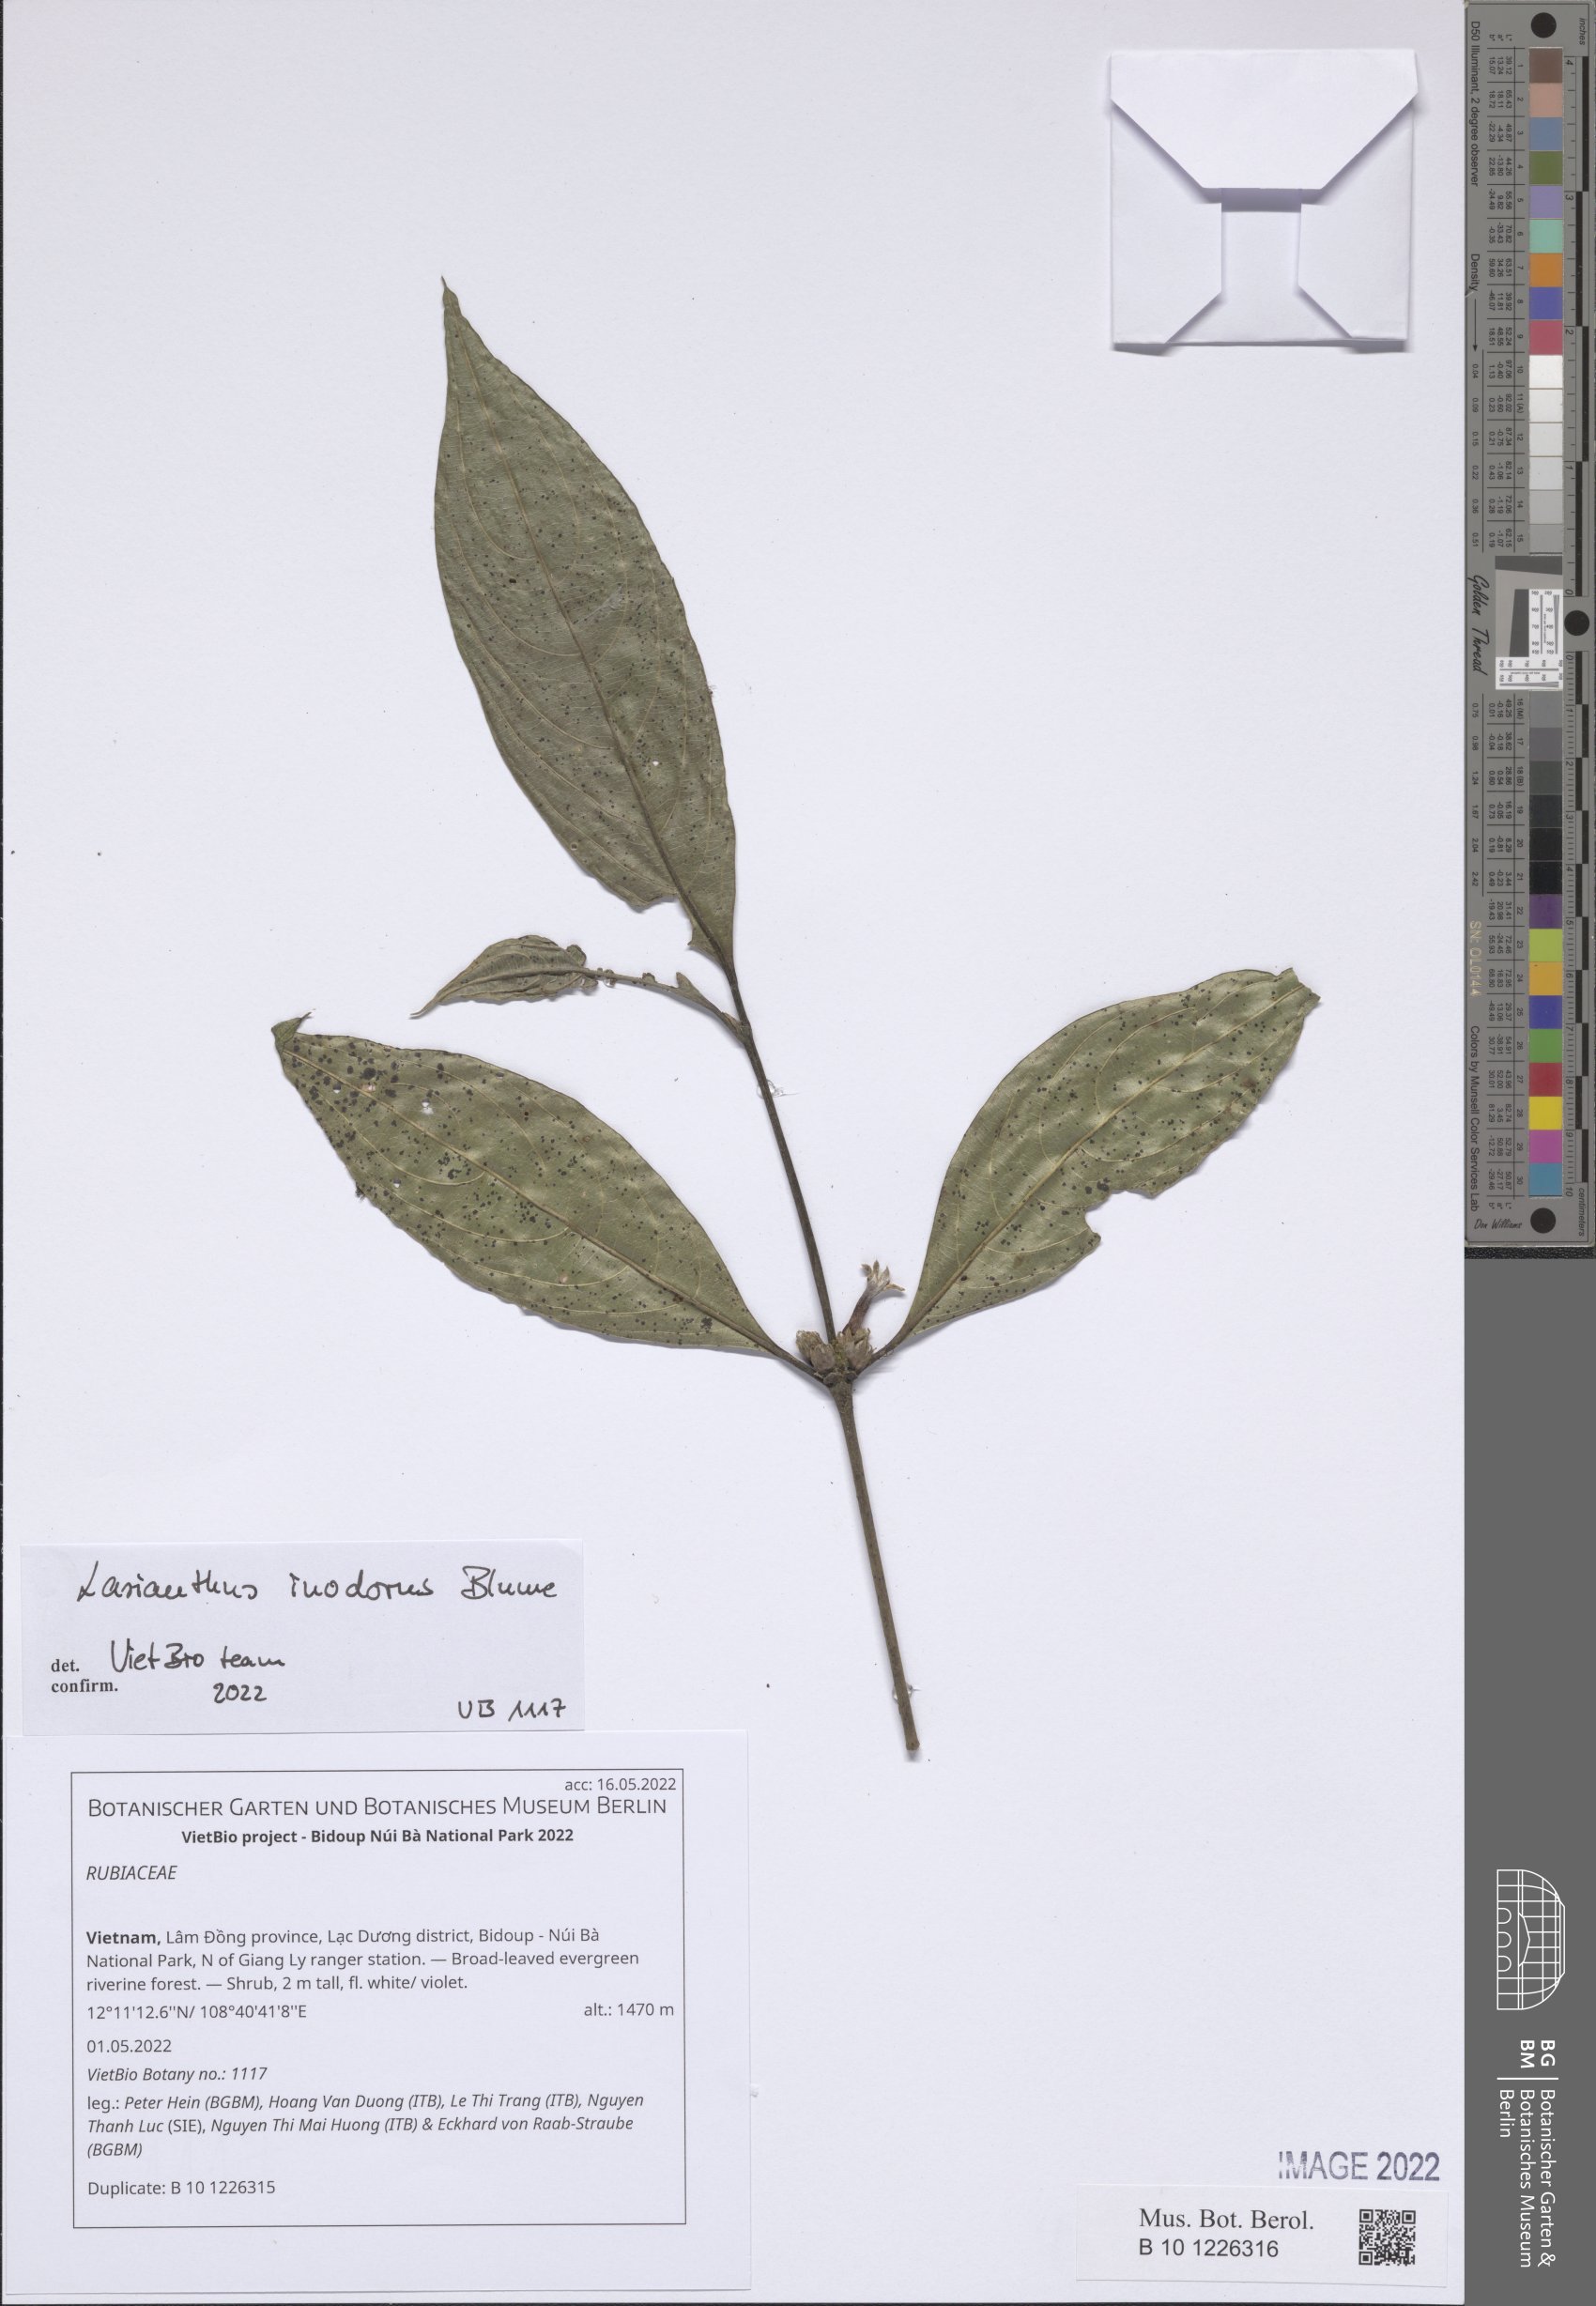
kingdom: Plantae
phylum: Tracheophyta
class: Magnoliopsida
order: Gentianales
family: Rubiaceae
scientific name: Rubiaceae
